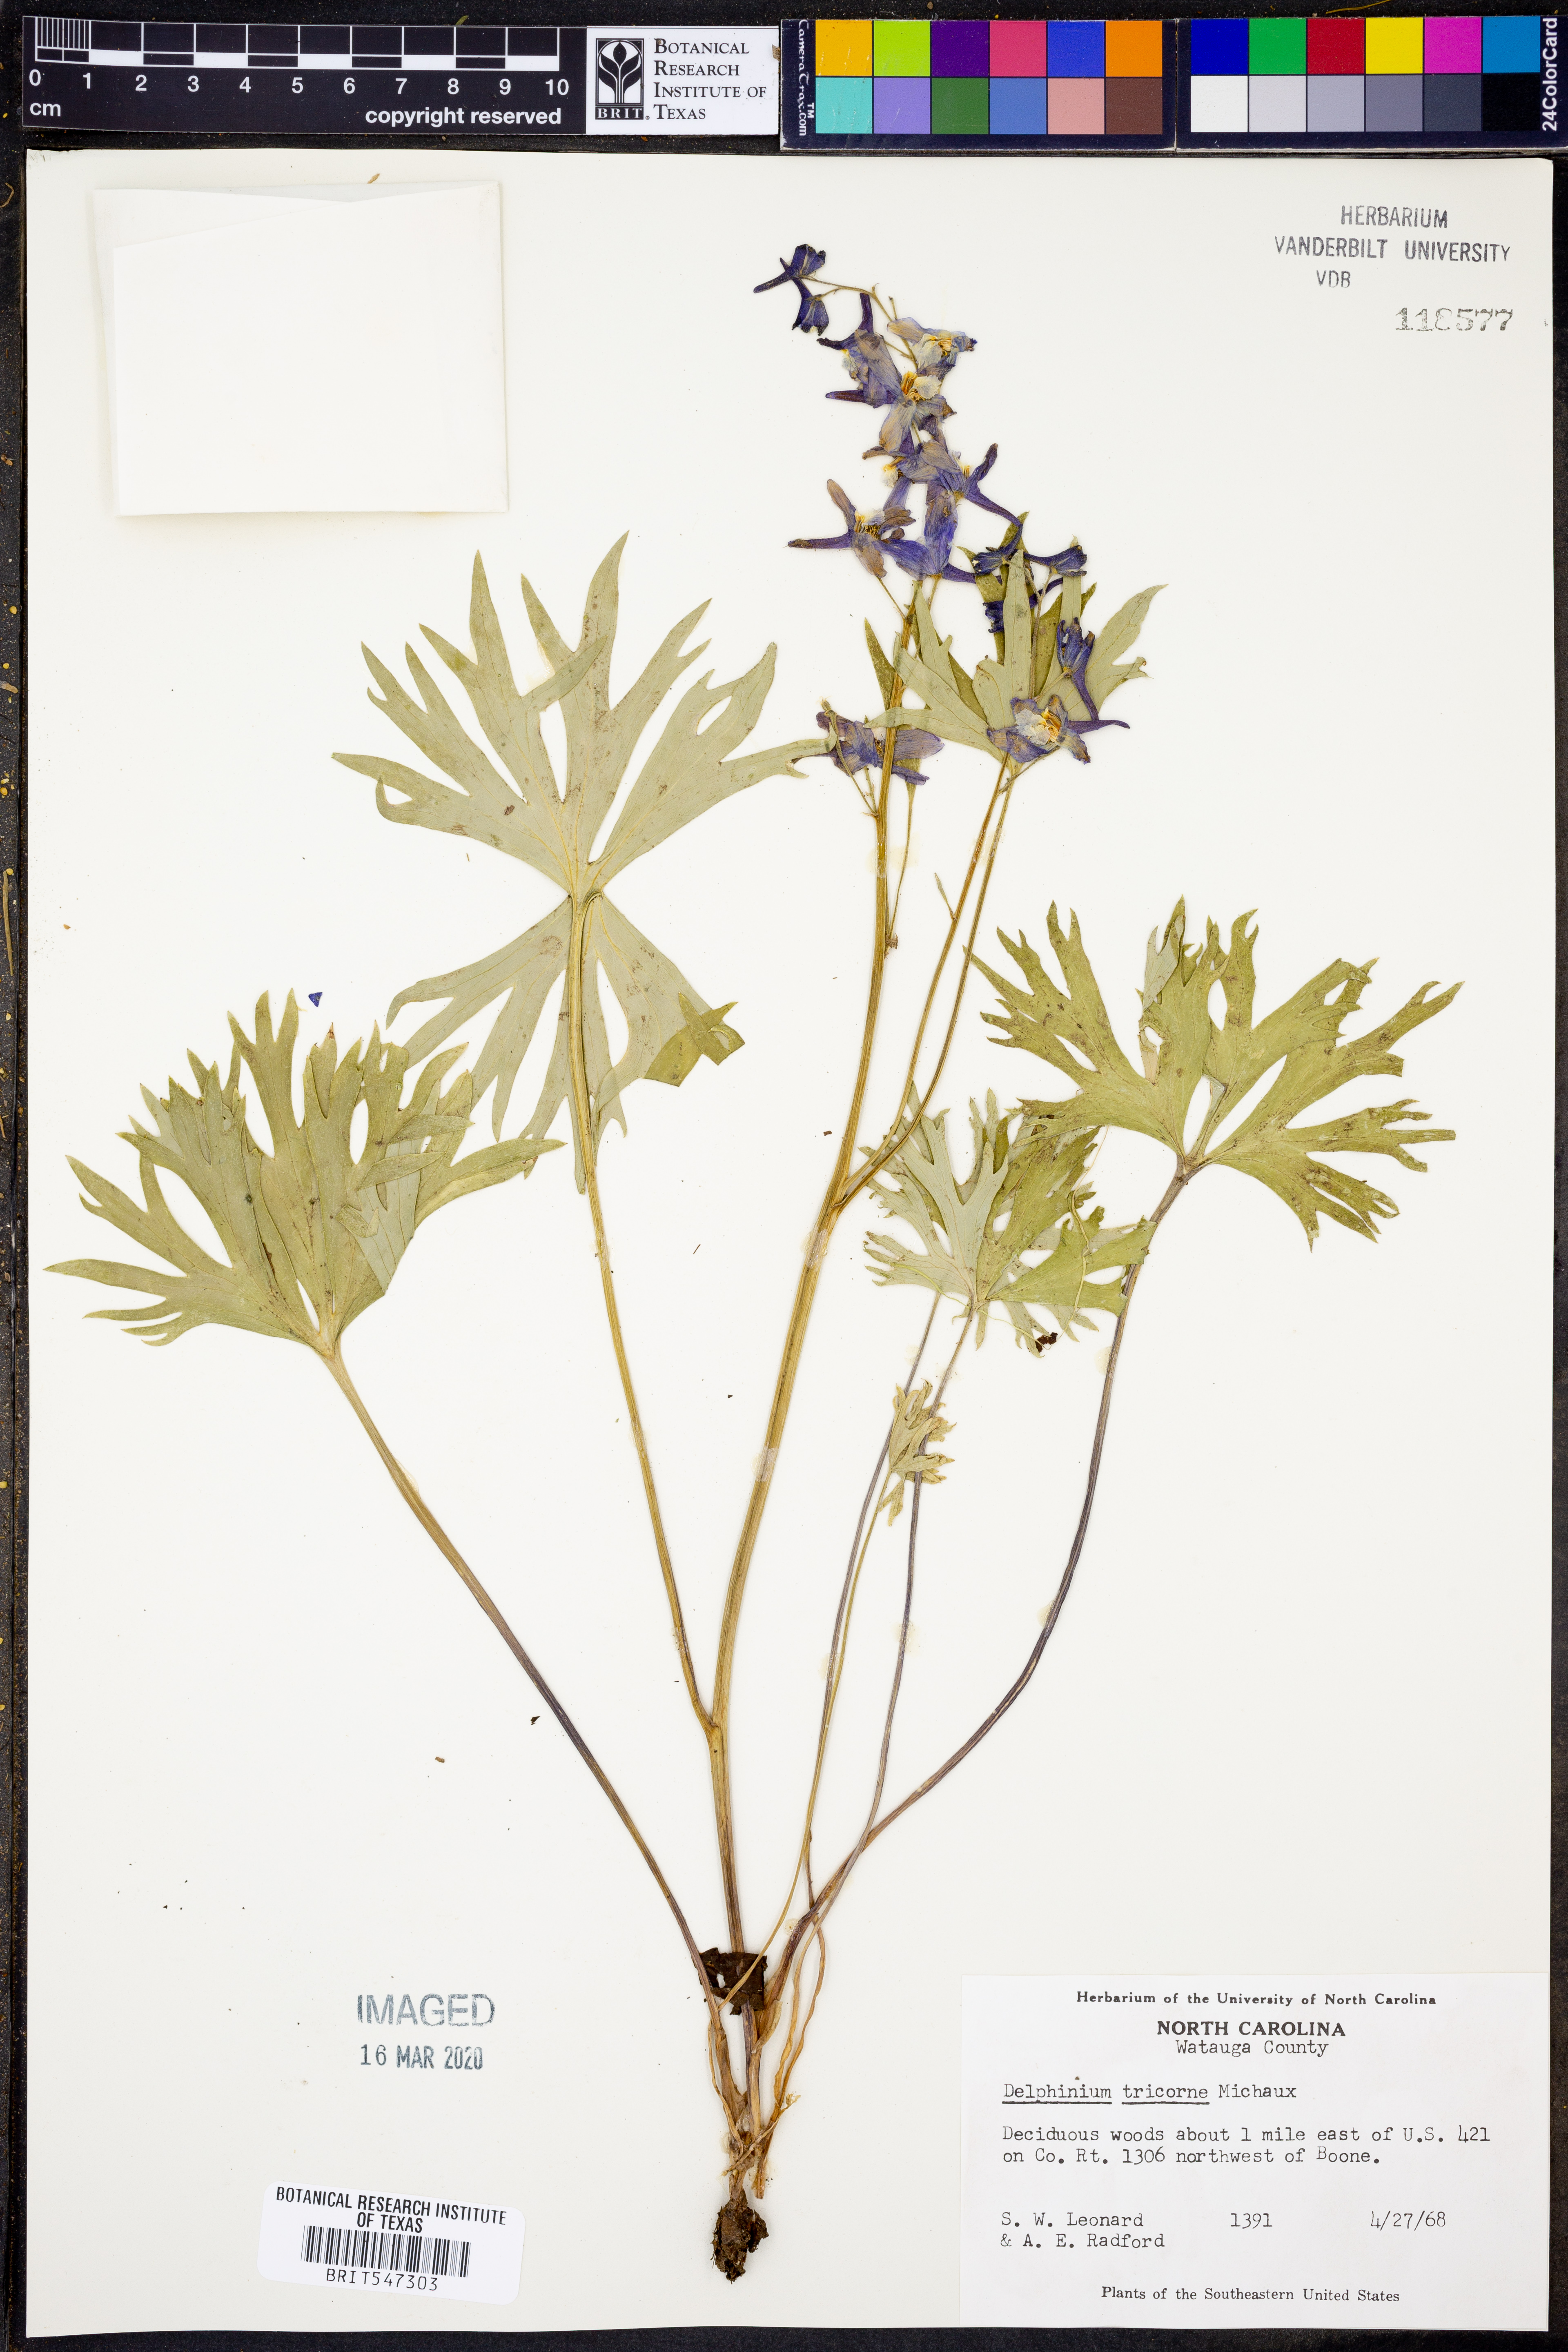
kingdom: Plantae
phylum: Tracheophyta
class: Magnoliopsida
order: Ranunculales
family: Ranunculaceae
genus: Delphinium
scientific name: Delphinium tricorne
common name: Dwarf larkspur
